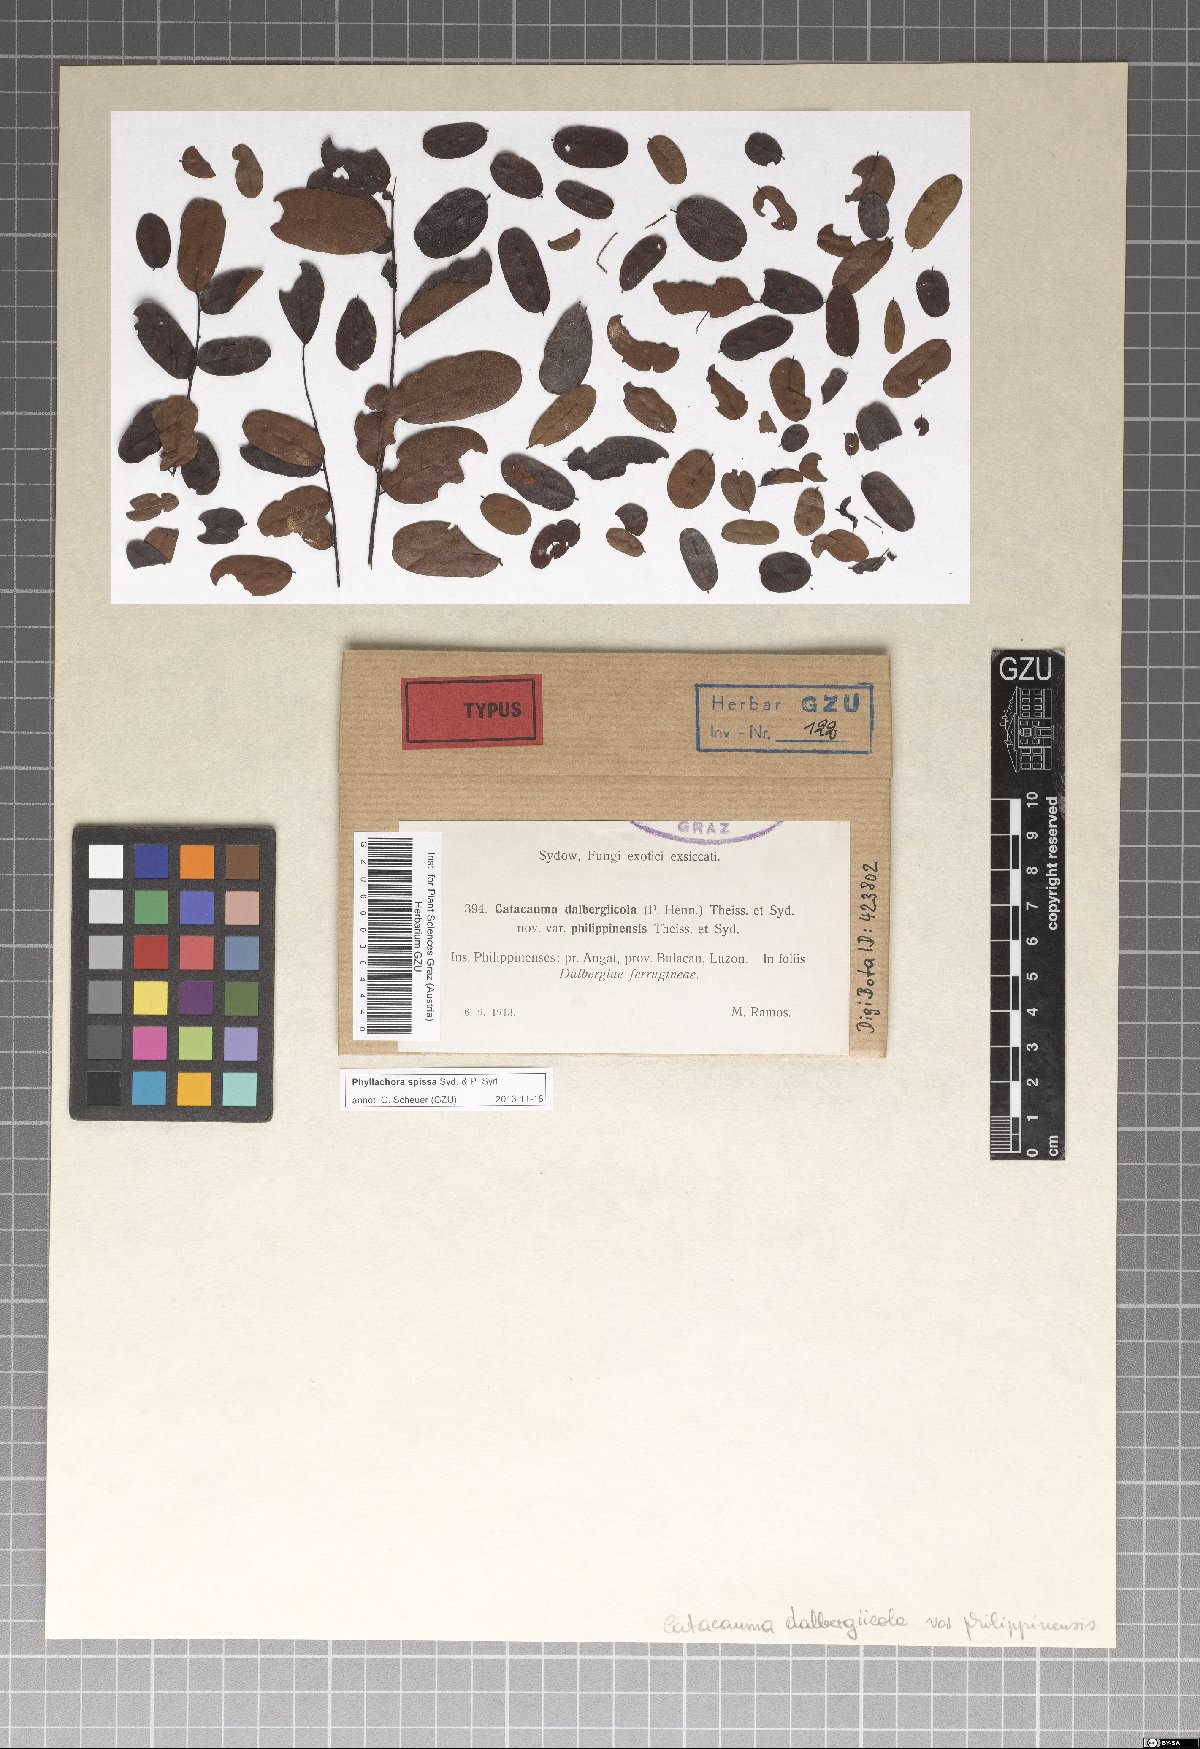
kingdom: Fungi
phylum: Ascomycota
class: Sordariomycetes
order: Phyllachorales
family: Phyllachoraceae
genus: Phyllachora
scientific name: Phyllachora spissa
